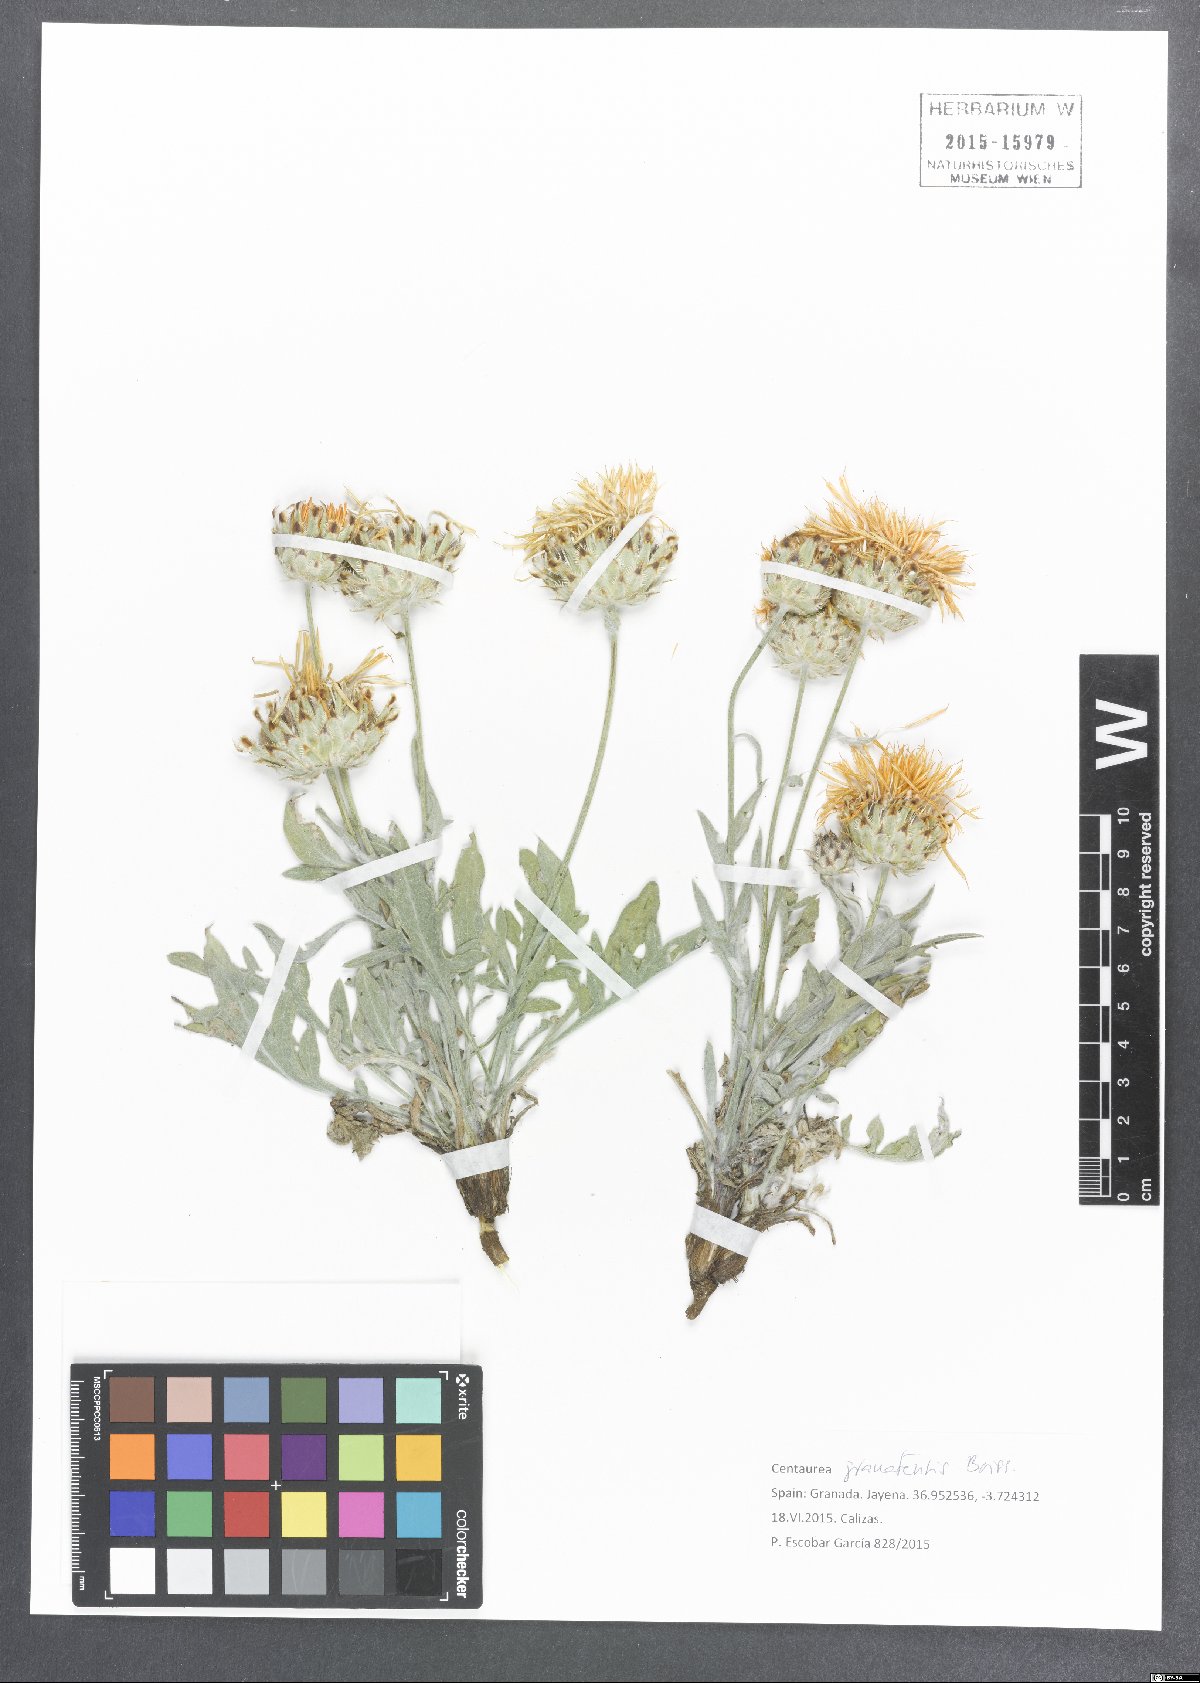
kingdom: Plantae
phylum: Tracheophyta
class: Magnoliopsida
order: Asterales
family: Asteraceae
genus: Centaurea
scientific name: Centaurea granatensis
